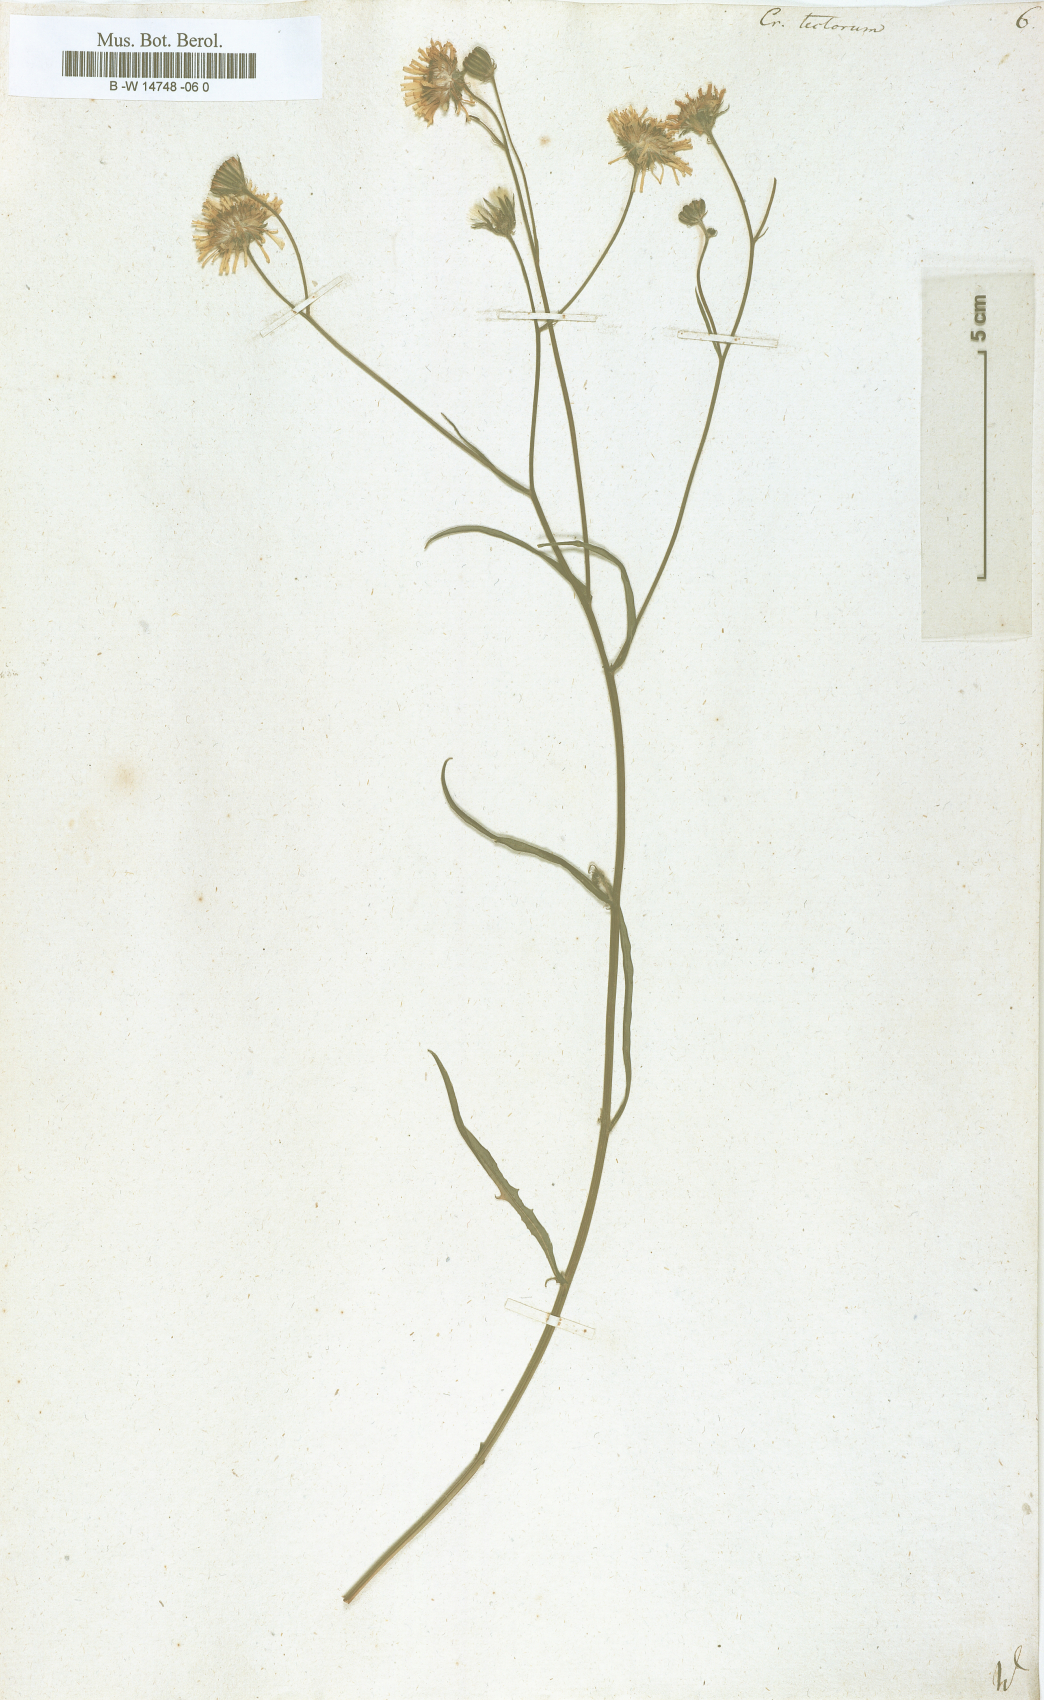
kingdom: Plantae
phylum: Tracheophyta
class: Magnoliopsida
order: Asterales
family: Asteraceae
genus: Crepis
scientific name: Crepis tectorum
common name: Narrow-leaved hawk's-beard
